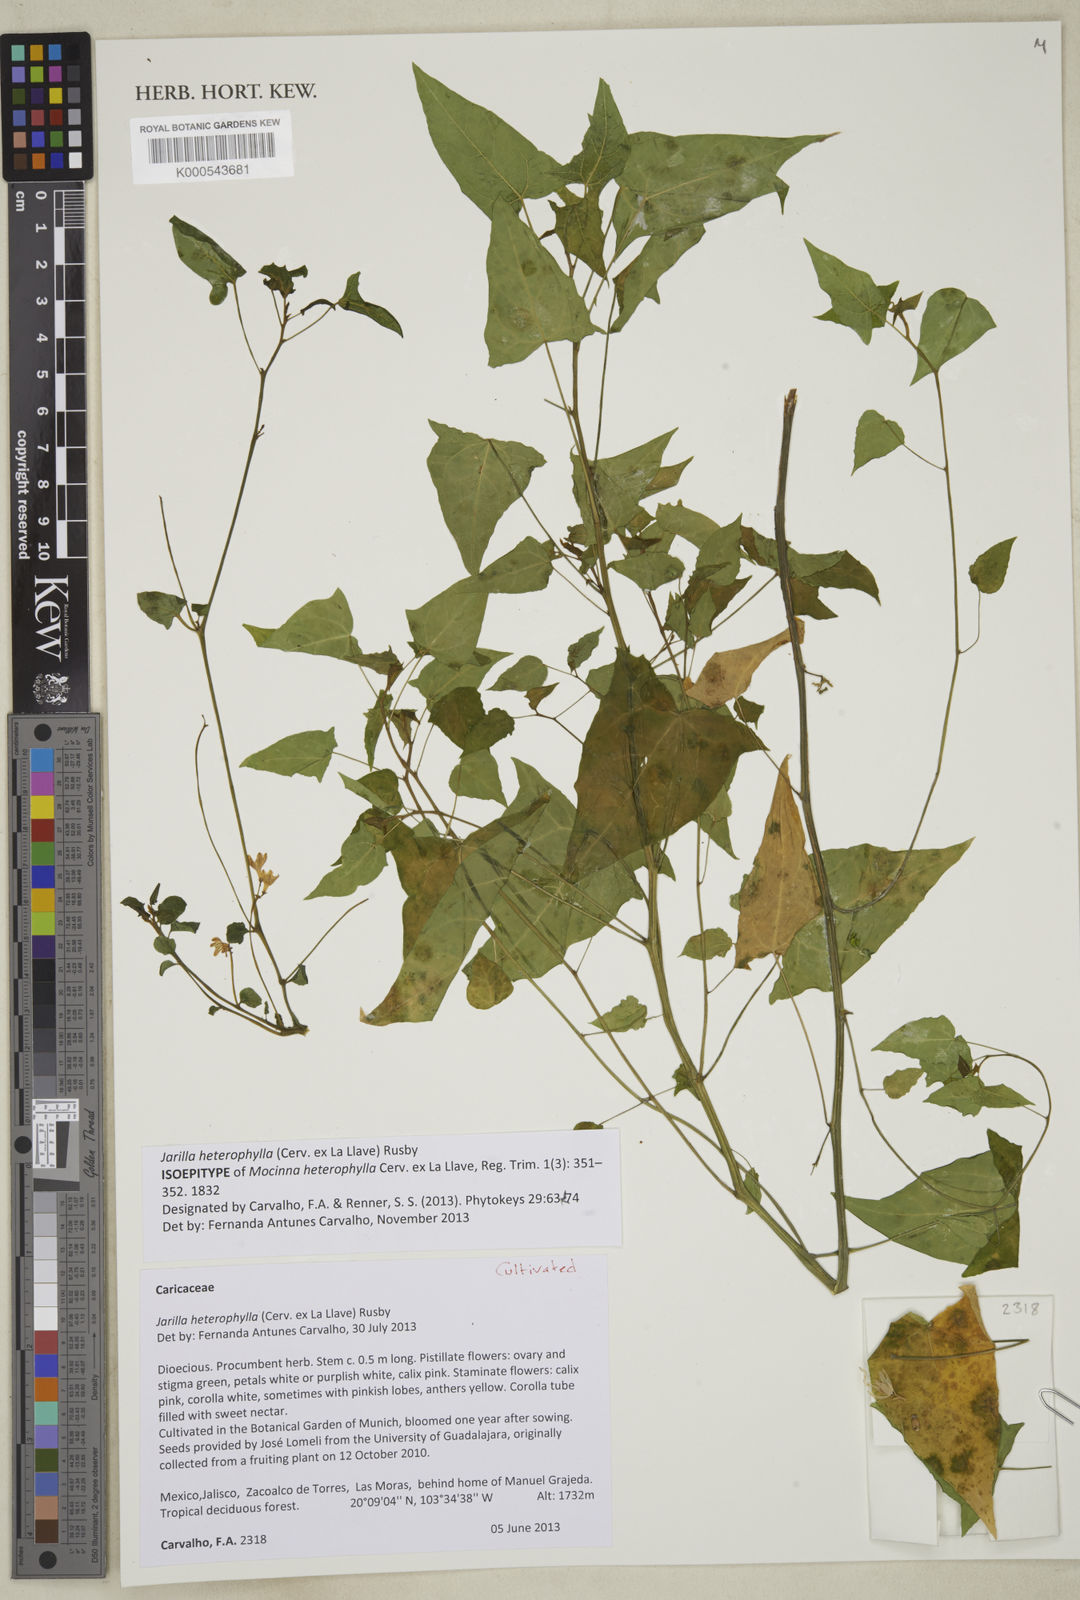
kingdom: Plantae
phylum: Tracheophyta
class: Magnoliopsida
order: Brassicales
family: Caricaceae
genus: Jarilla
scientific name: Jarilla heterophylla
